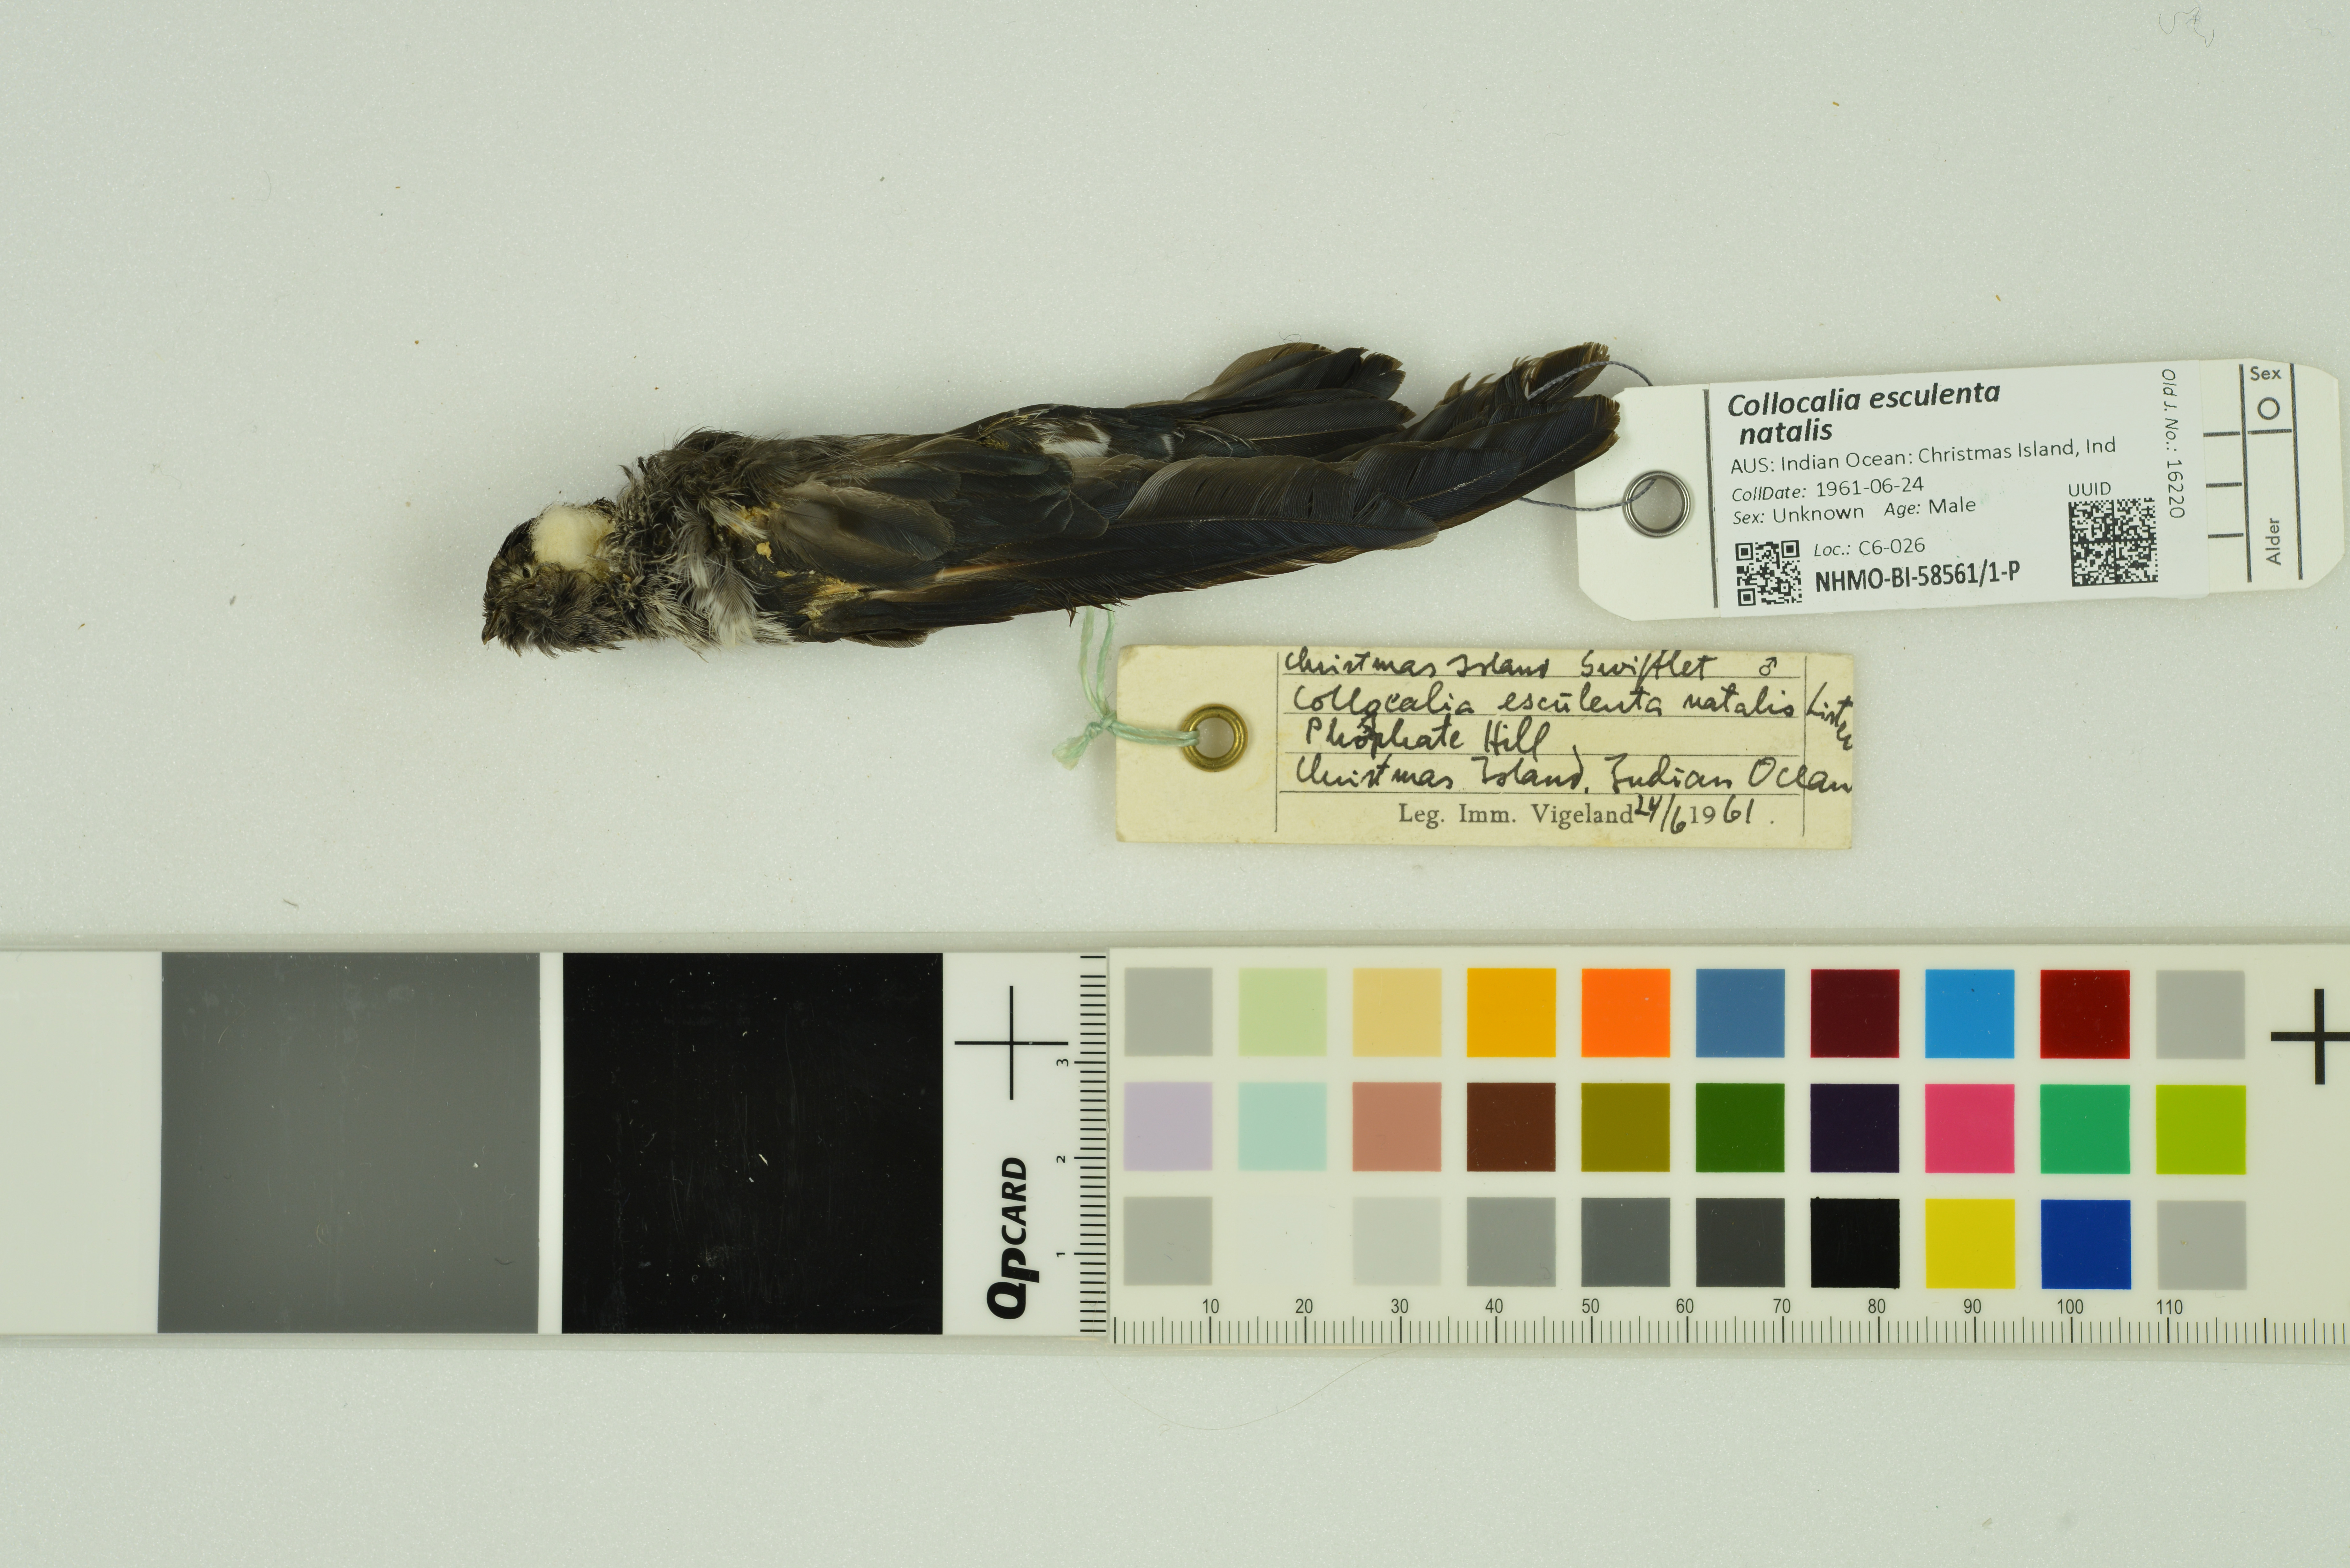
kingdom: Animalia
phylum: Chordata
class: Aves
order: Apodiformes
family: Apodidae
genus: Collocalia
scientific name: Collocalia natalis
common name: Christmas island swiftlet
